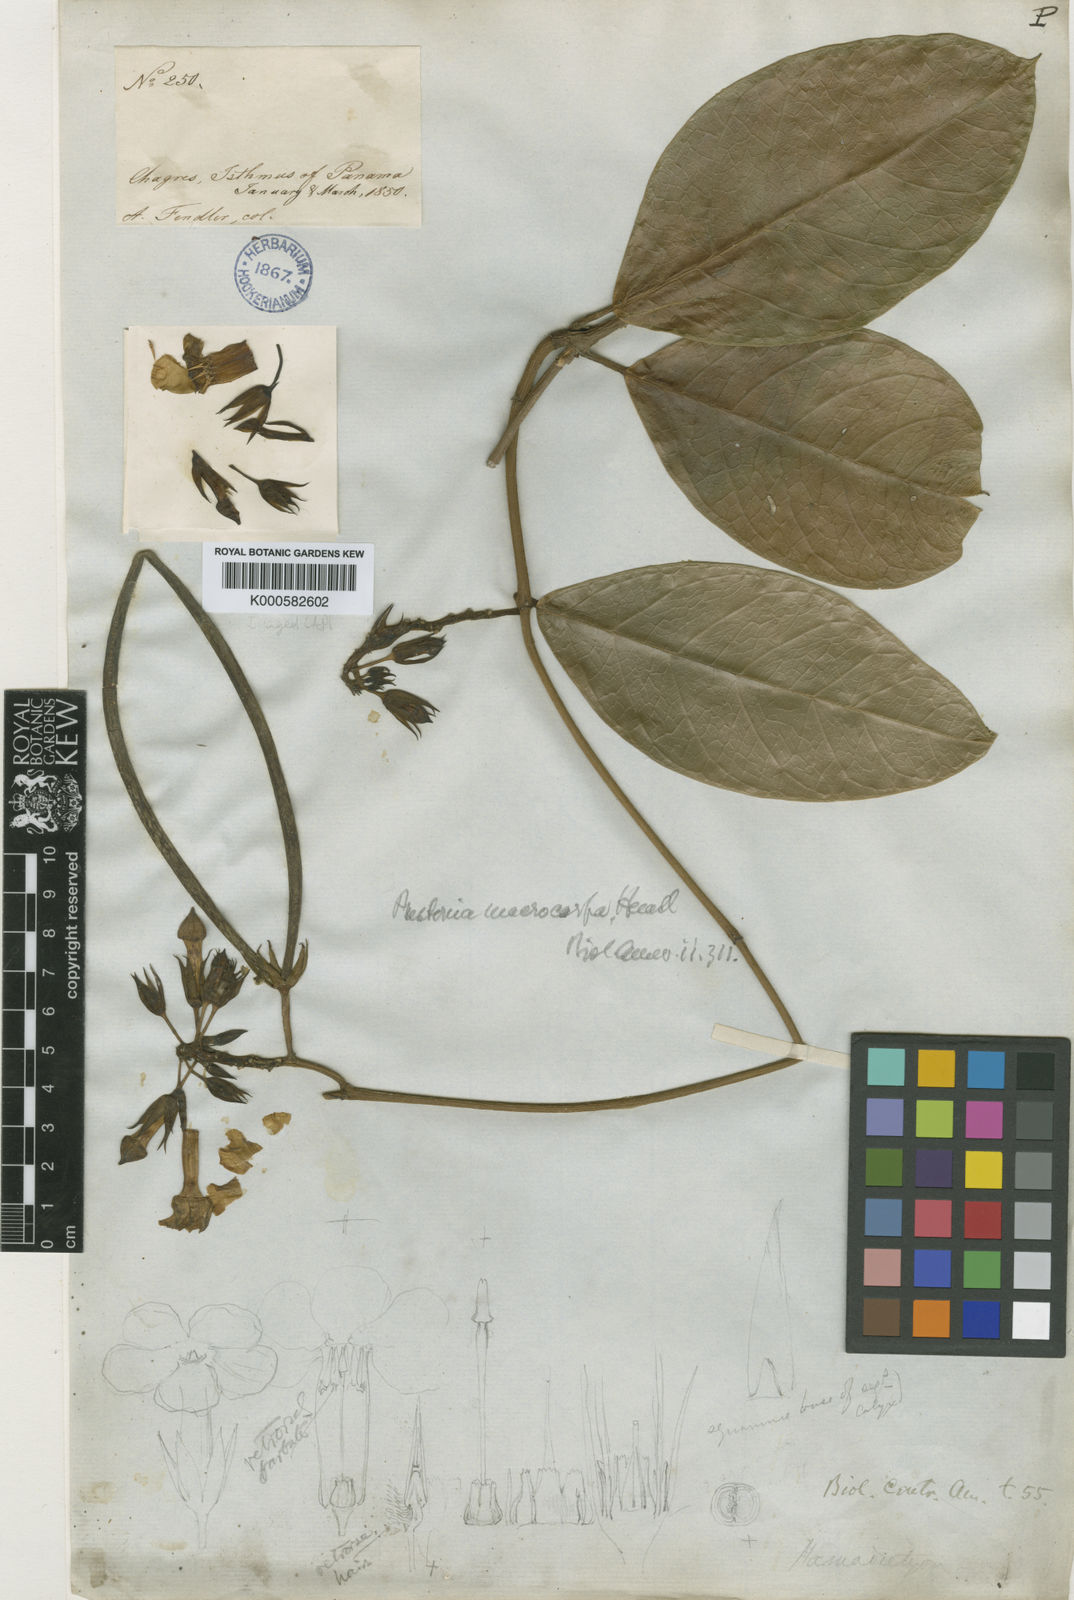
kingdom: Plantae
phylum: Tracheophyta
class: Magnoliopsida
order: Gentianales
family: Apocynaceae
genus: Prestonia
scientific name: Prestonia portobellensis
